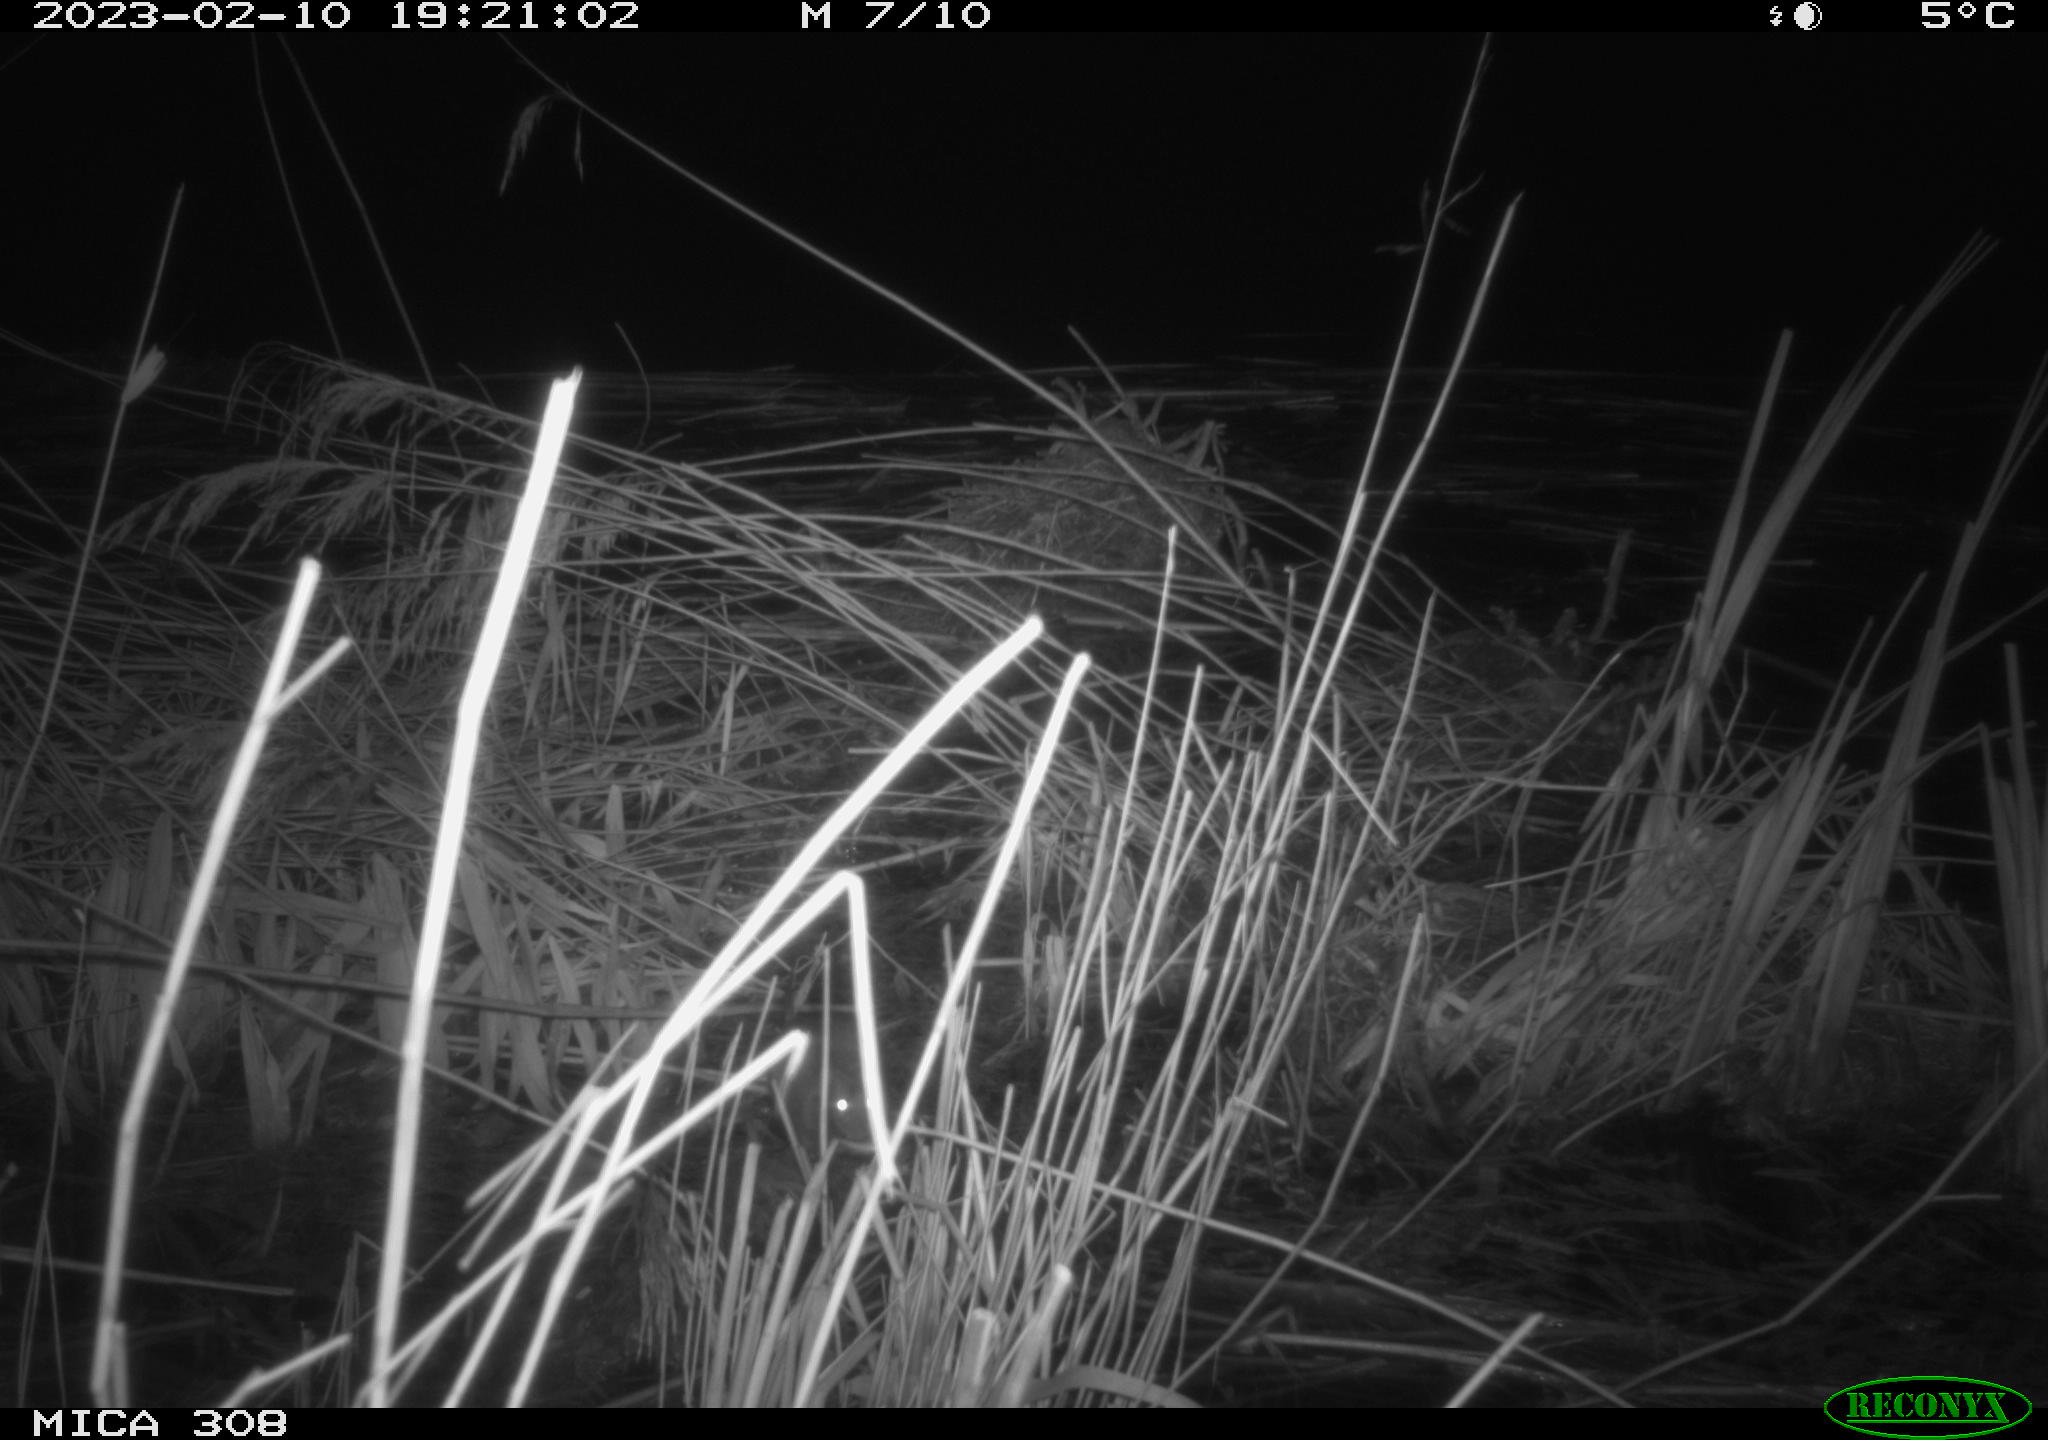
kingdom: Animalia
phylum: Chordata
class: Mammalia
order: Rodentia
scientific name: Rodentia
